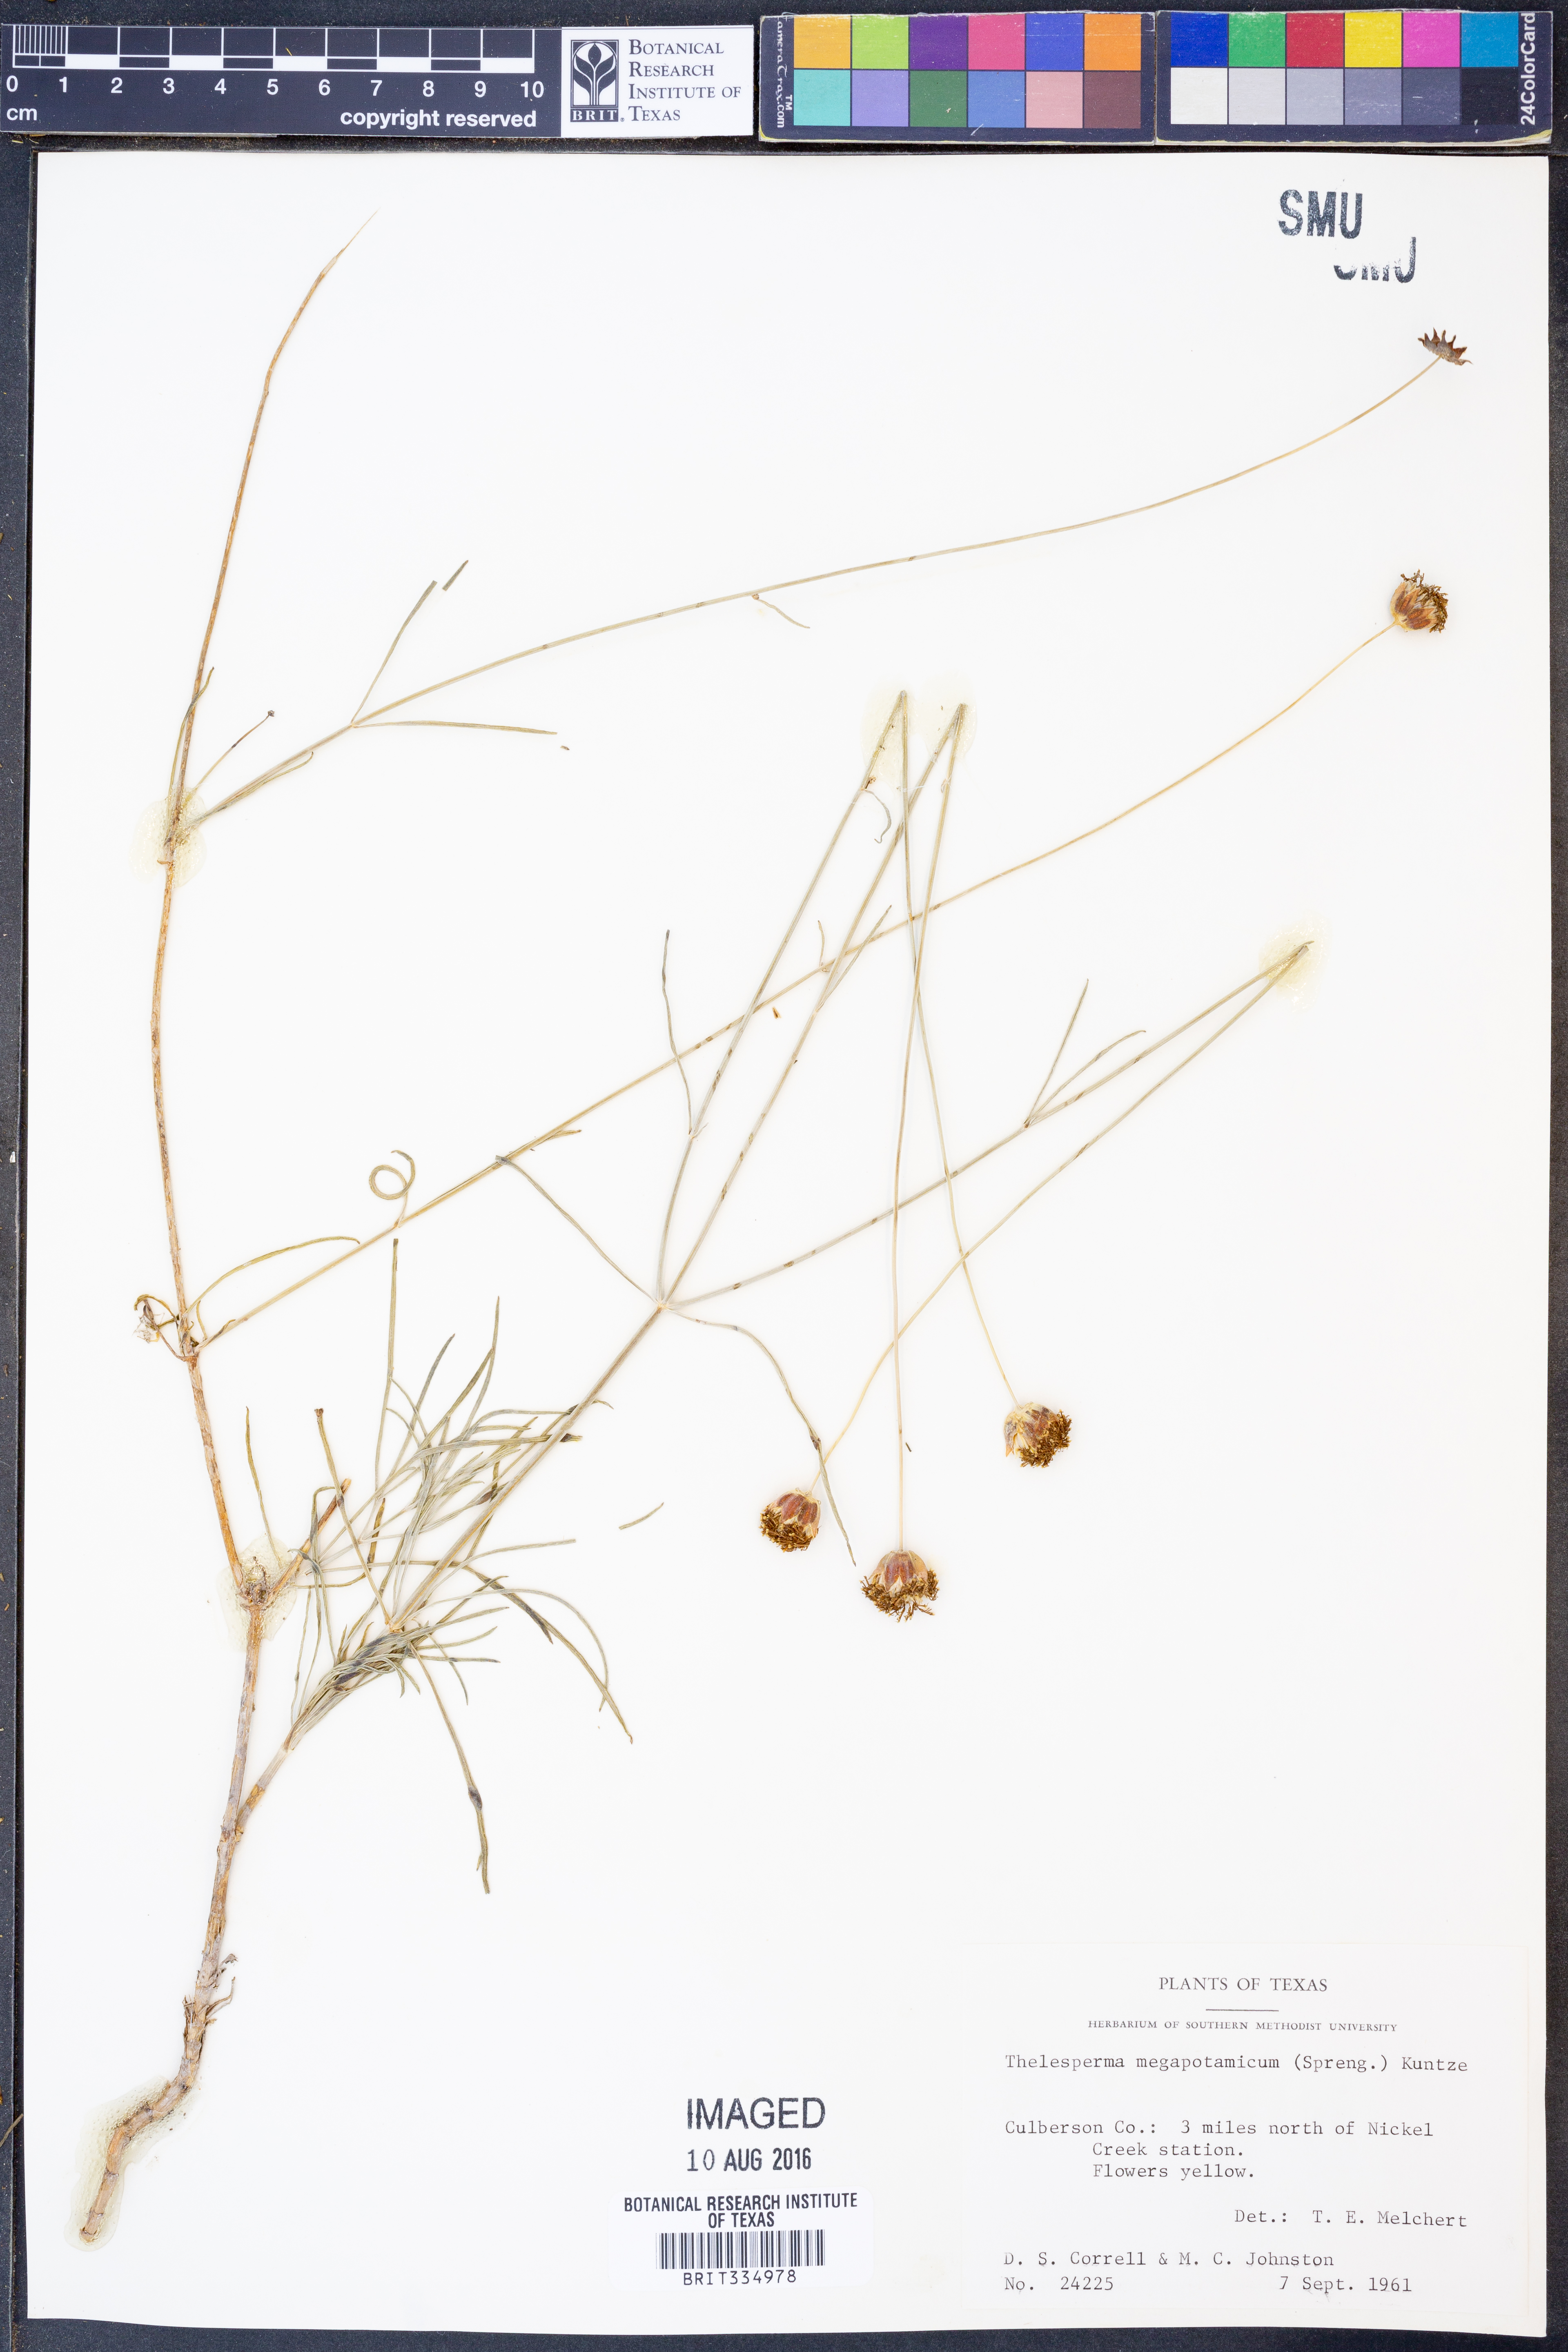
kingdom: Plantae
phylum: Tracheophyta
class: Magnoliopsida
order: Asterales
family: Asteraceae
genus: Thelesperma
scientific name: Thelesperma megapotamicum
